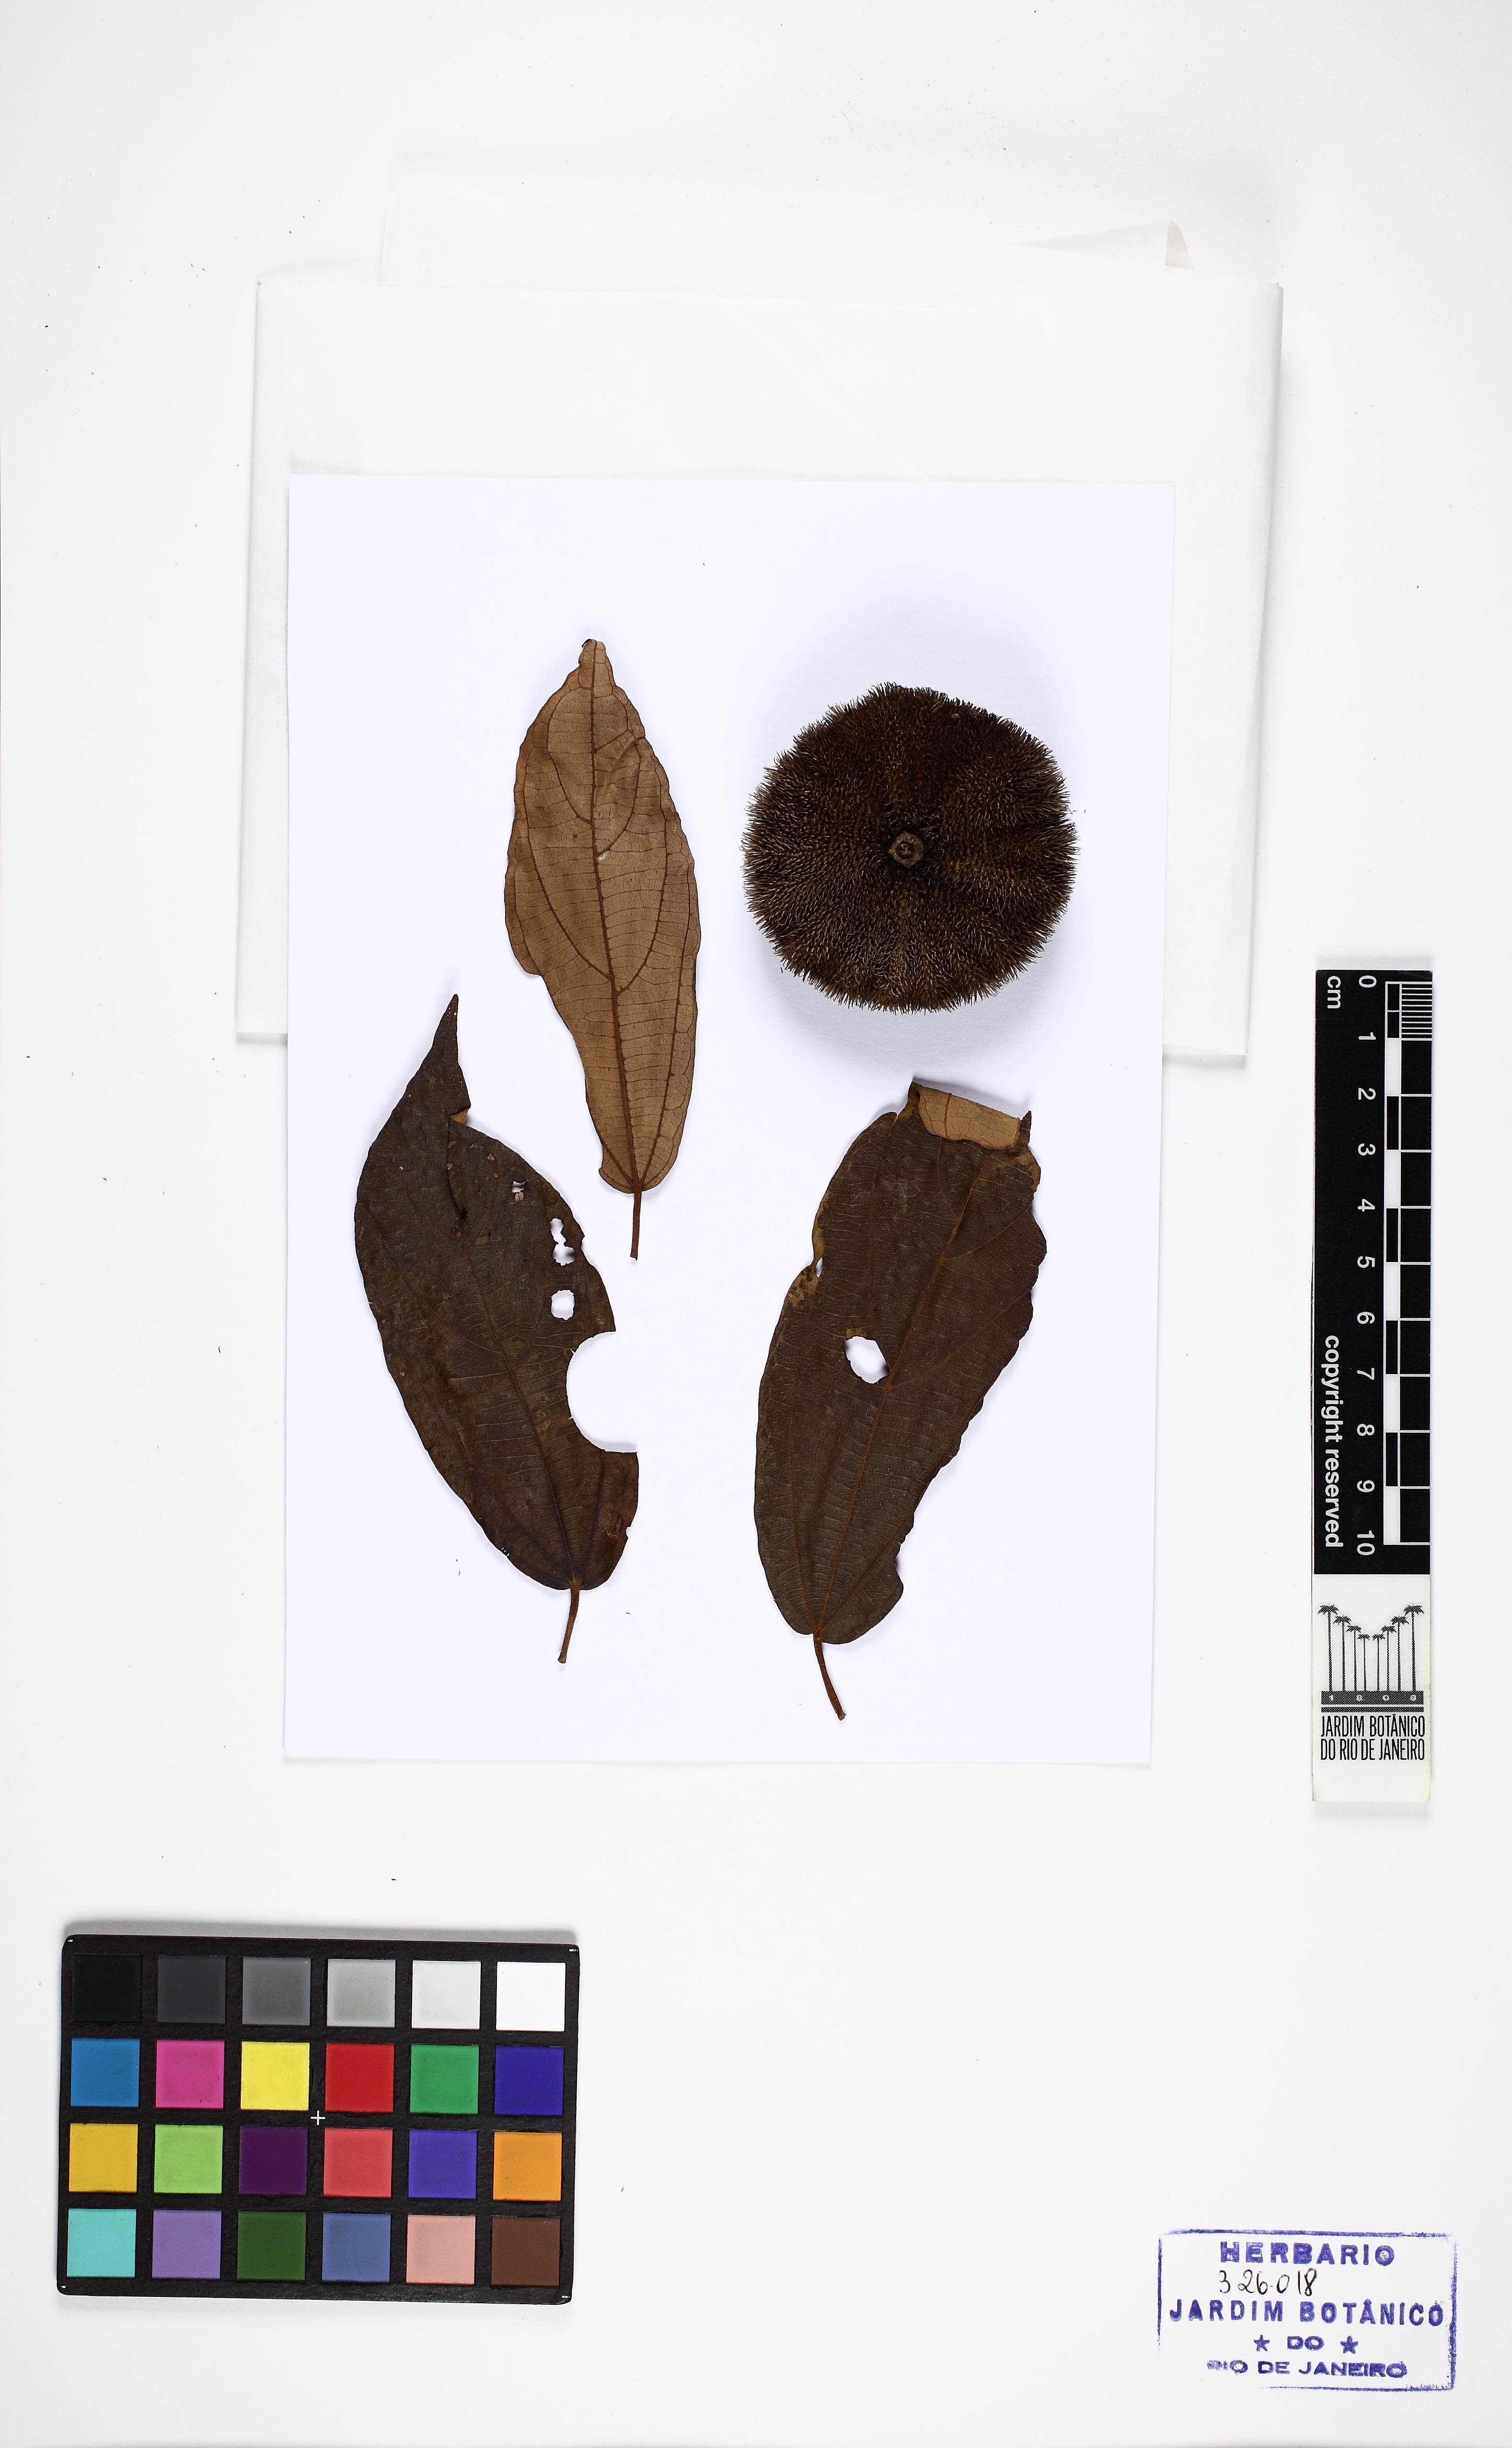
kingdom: Plantae
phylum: Tracheophyta
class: Magnoliopsida
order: Malvales
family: Malvaceae
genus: Apeiba
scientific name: Apeiba glabra
